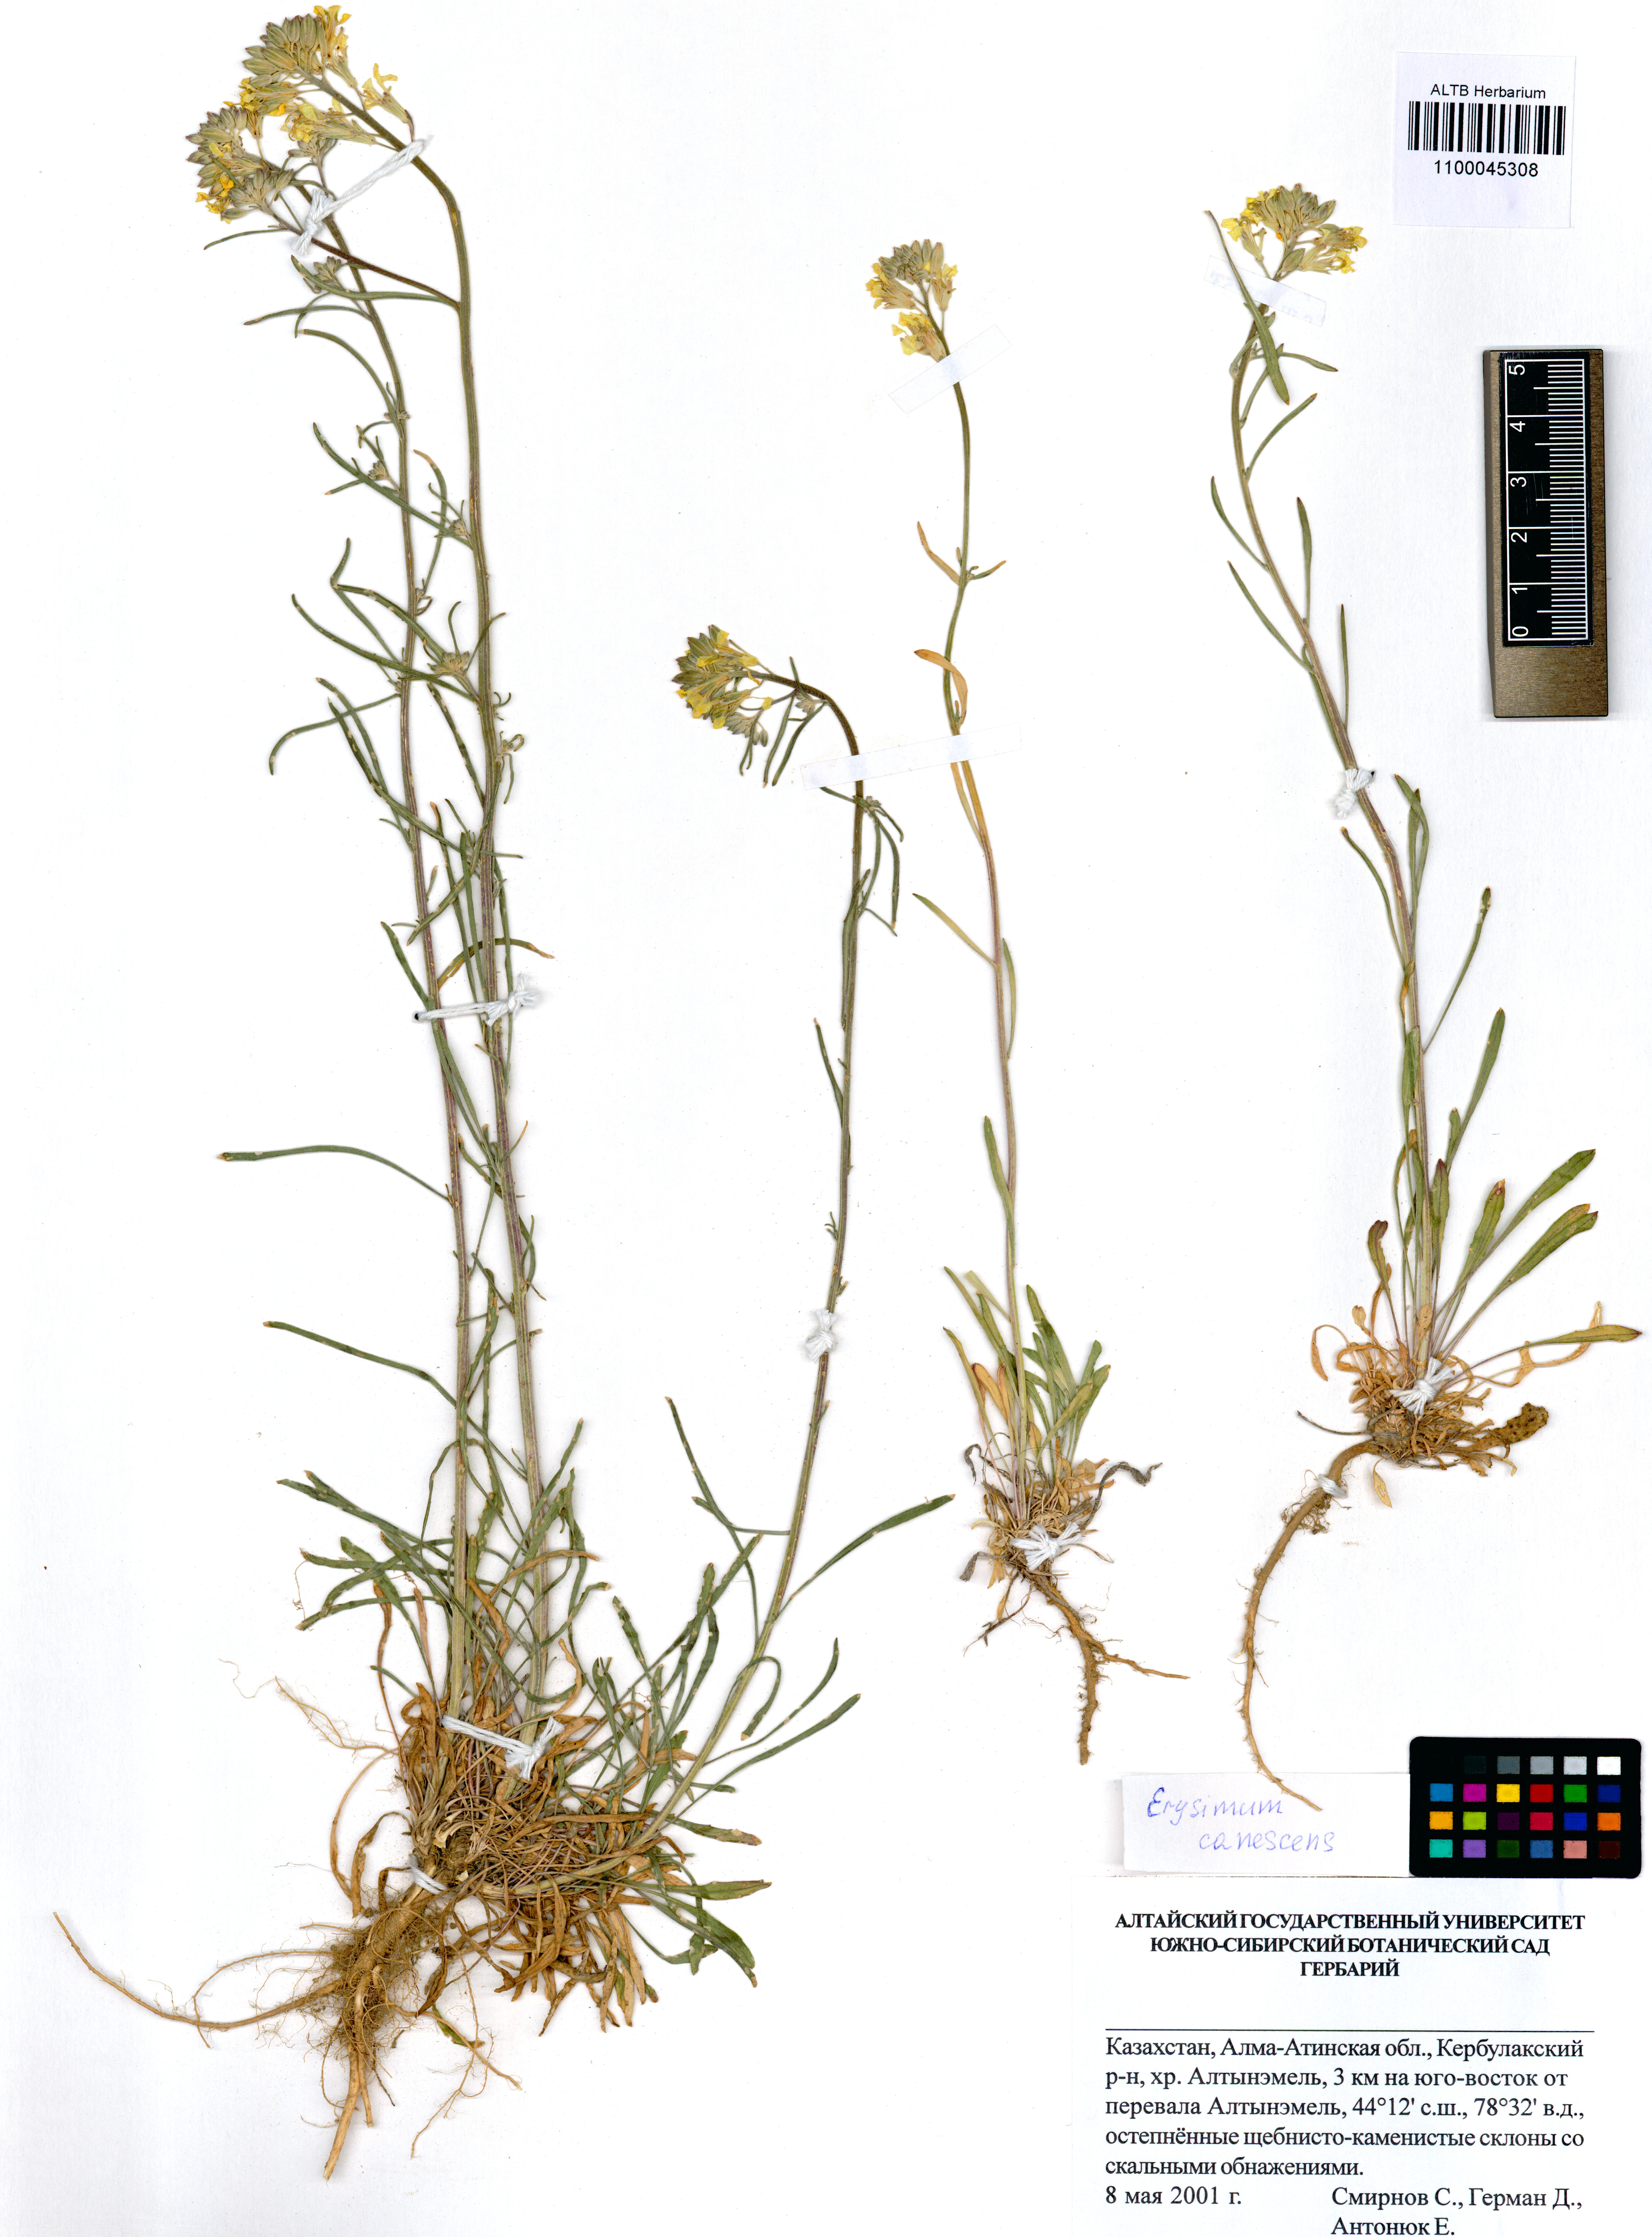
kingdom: Plantae
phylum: Tracheophyta
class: Magnoliopsida
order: Brassicales
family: Brassicaceae
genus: Erysimum
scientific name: Erysimum canescens
